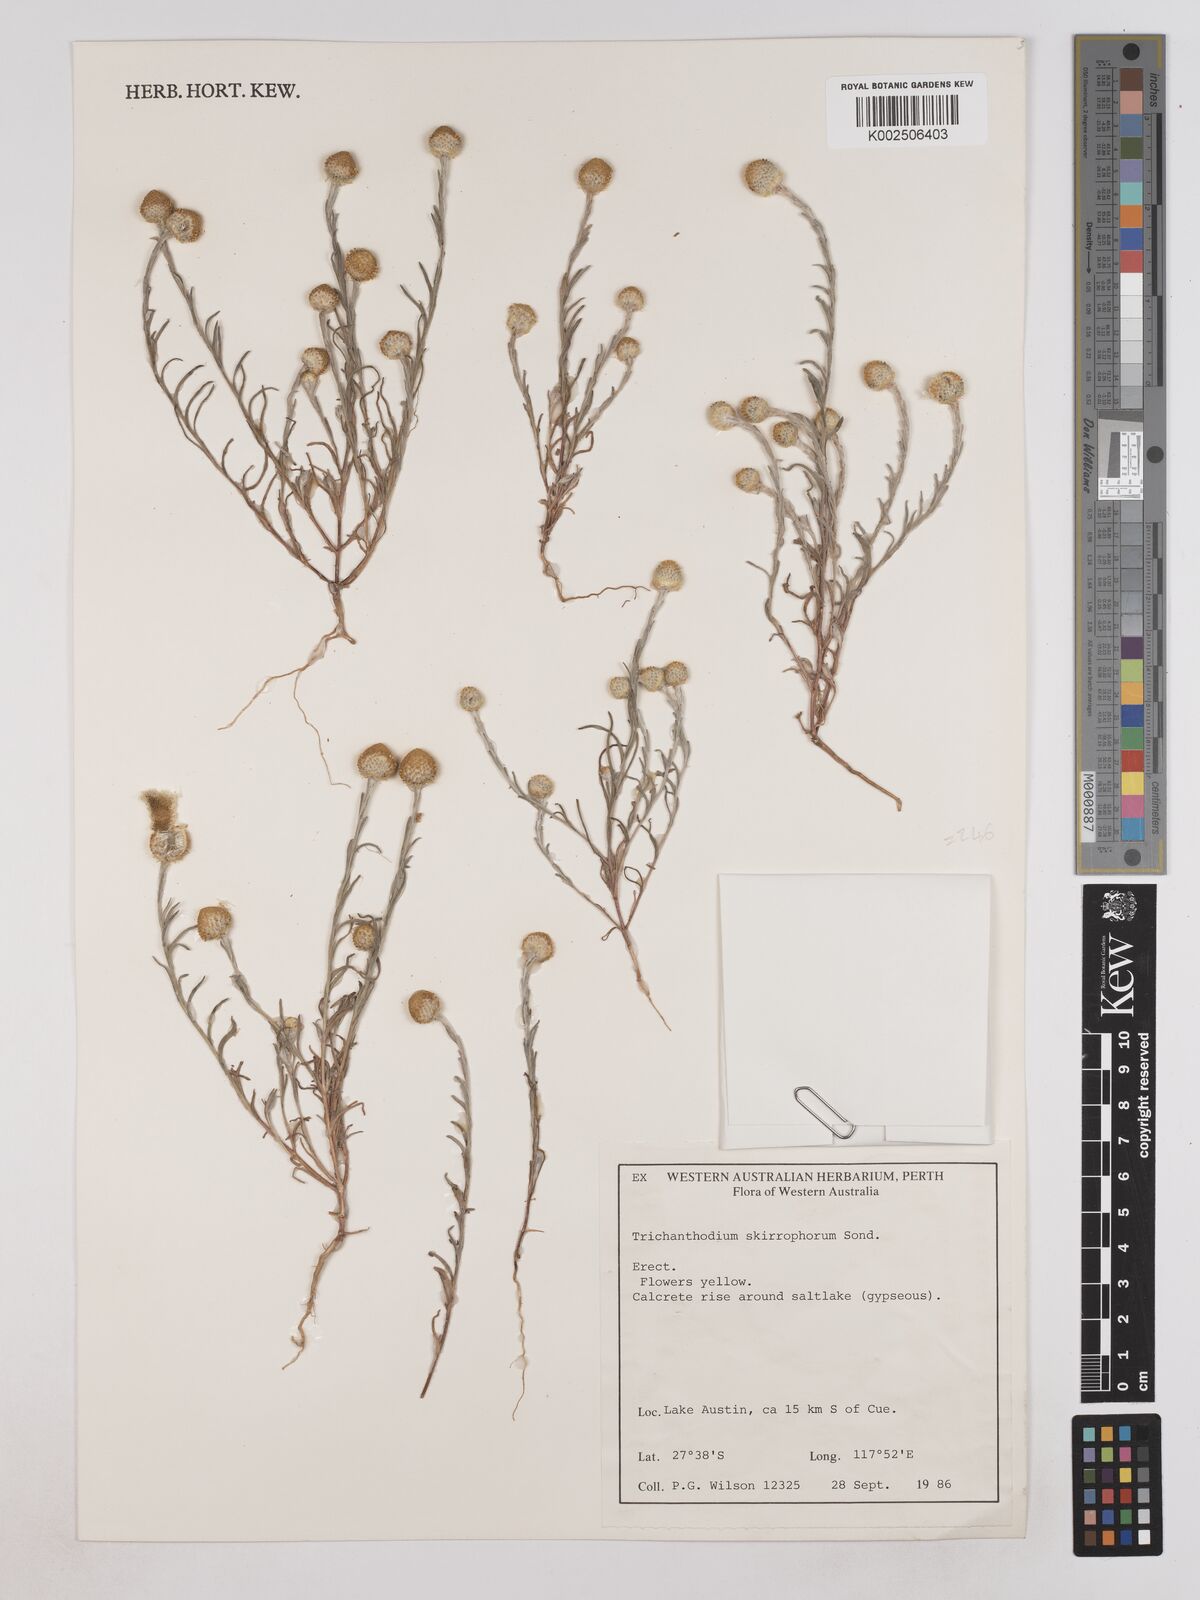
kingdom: Plantae
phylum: Tracheophyta
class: Magnoliopsida
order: Asterales
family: Asteraceae
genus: Trichanthodium
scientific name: Trichanthodium skirrophorum
